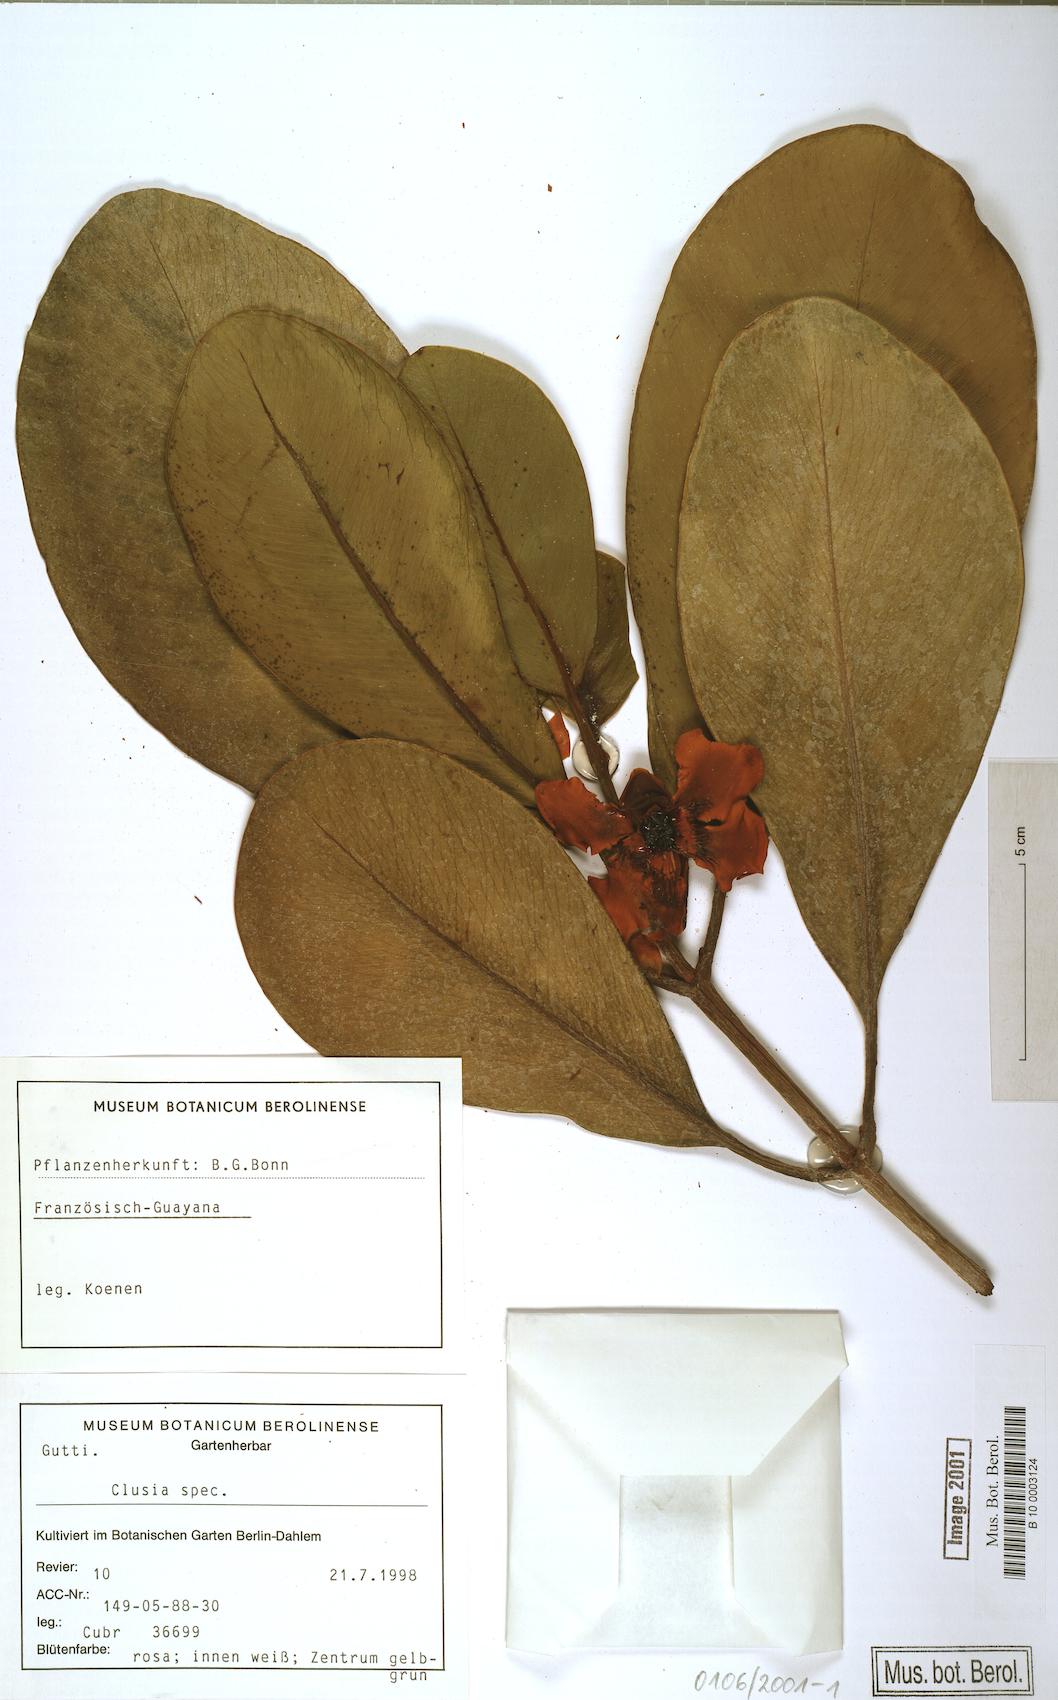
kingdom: Plantae
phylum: Tracheophyta
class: Magnoliopsida
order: Malpighiales
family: Clusiaceae
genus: Clusia
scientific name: Clusia
